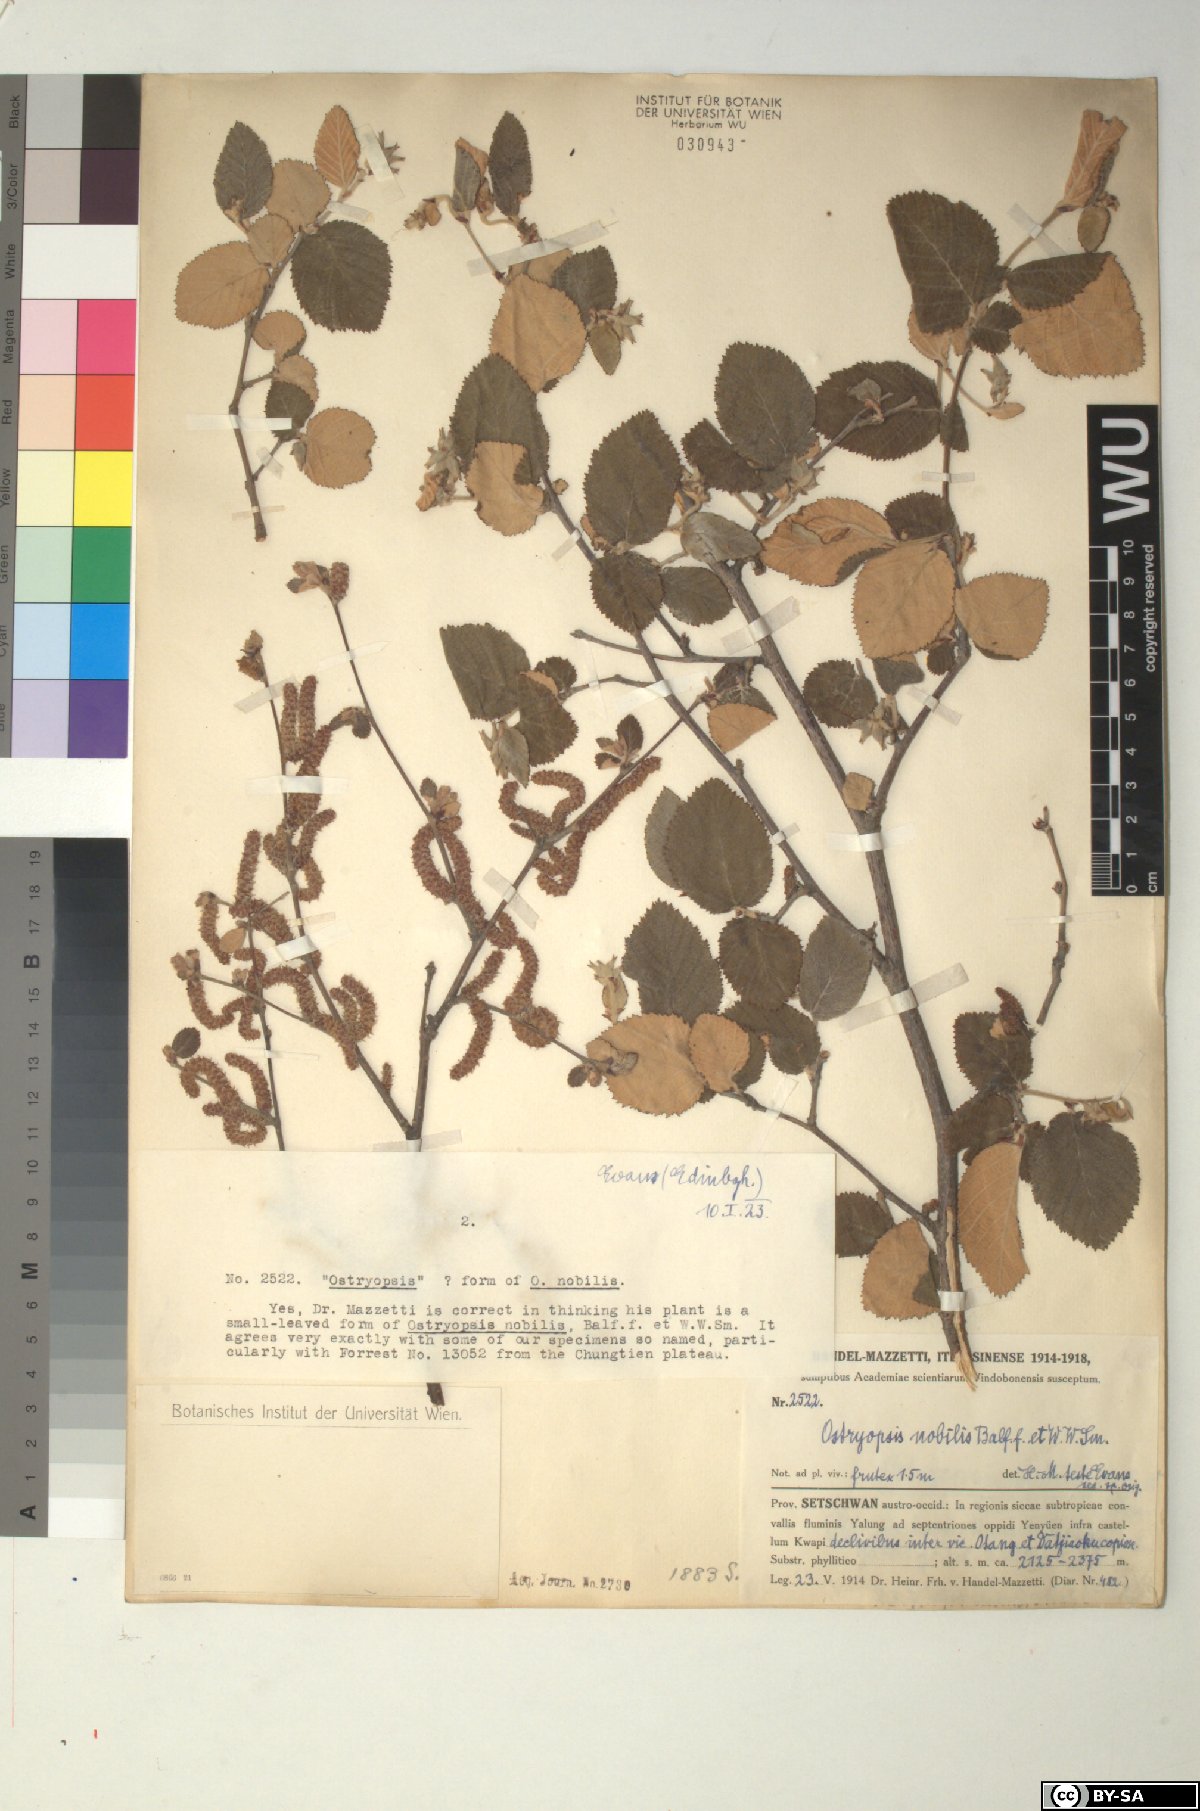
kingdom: Plantae
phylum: Tracheophyta
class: Magnoliopsida
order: Fagales
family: Betulaceae
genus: Ostryopsis
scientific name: Ostryopsis nobilis
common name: Yunnan tiger hazel
